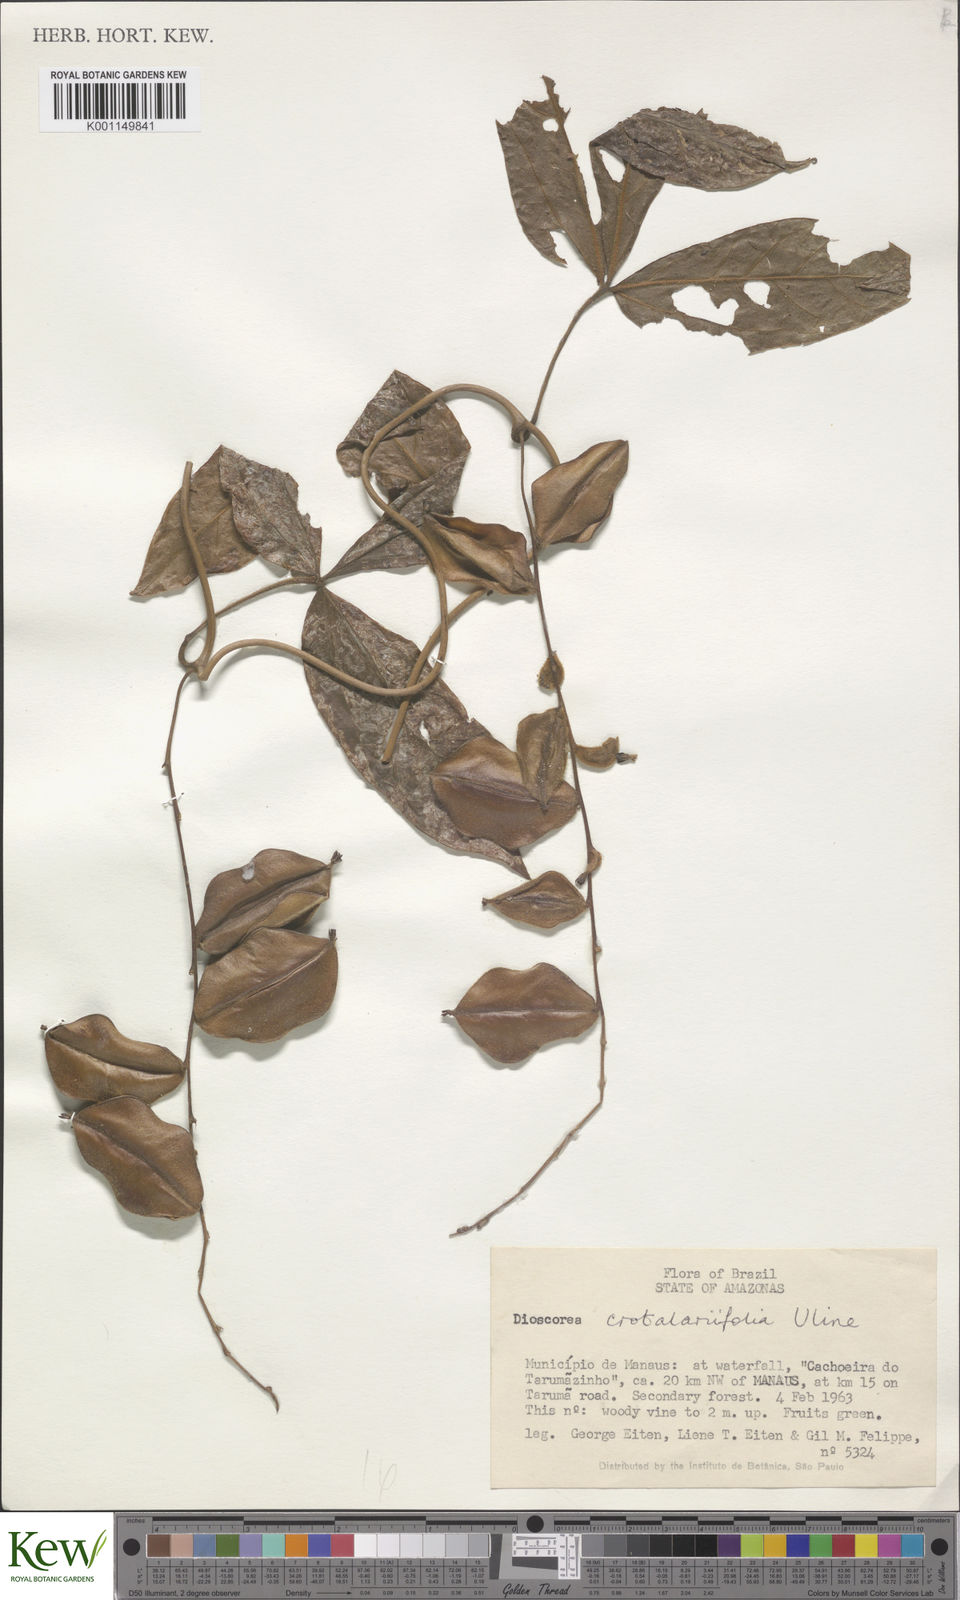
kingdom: Plantae
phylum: Tracheophyta
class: Liliopsida
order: Dioscoreales
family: Dioscoreaceae
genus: Dioscorea
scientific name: Dioscorea crotalariifolia
